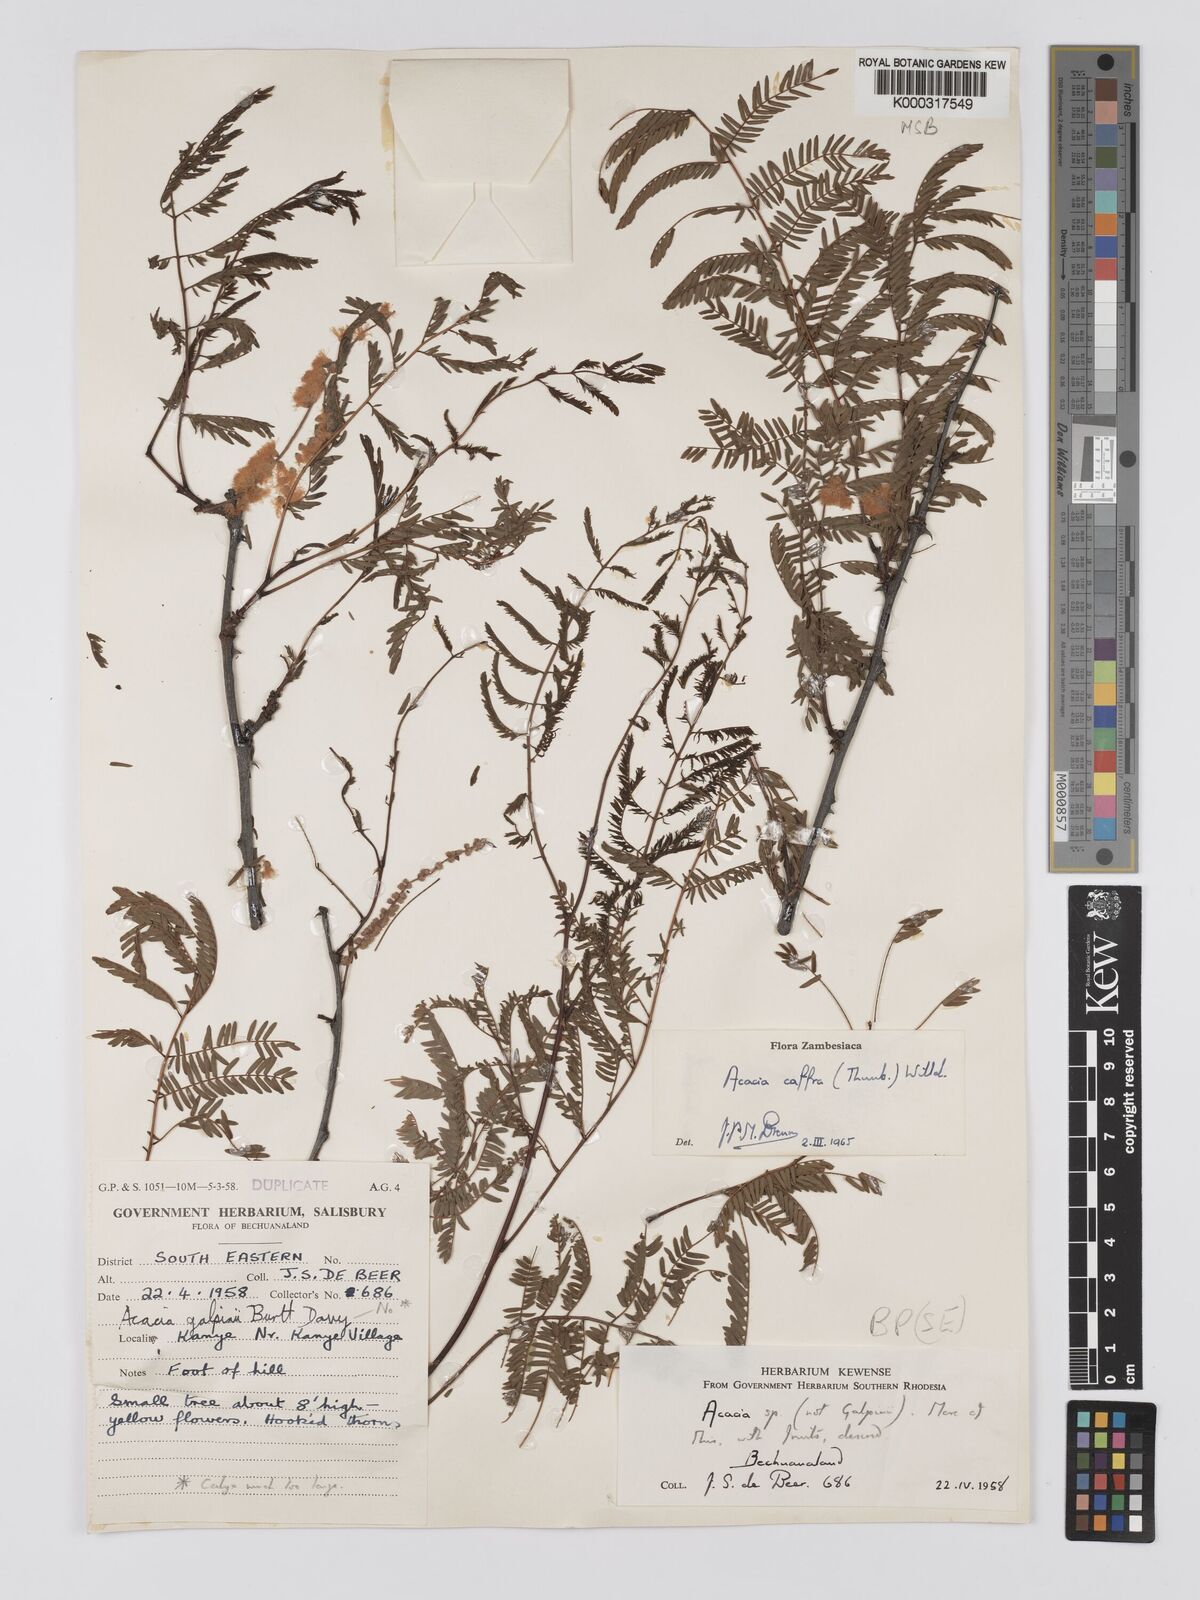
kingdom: Plantae
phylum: Tracheophyta
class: Magnoliopsida
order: Fabales
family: Fabaceae
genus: Senegalia
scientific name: Senegalia caffra
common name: Cat thorn
